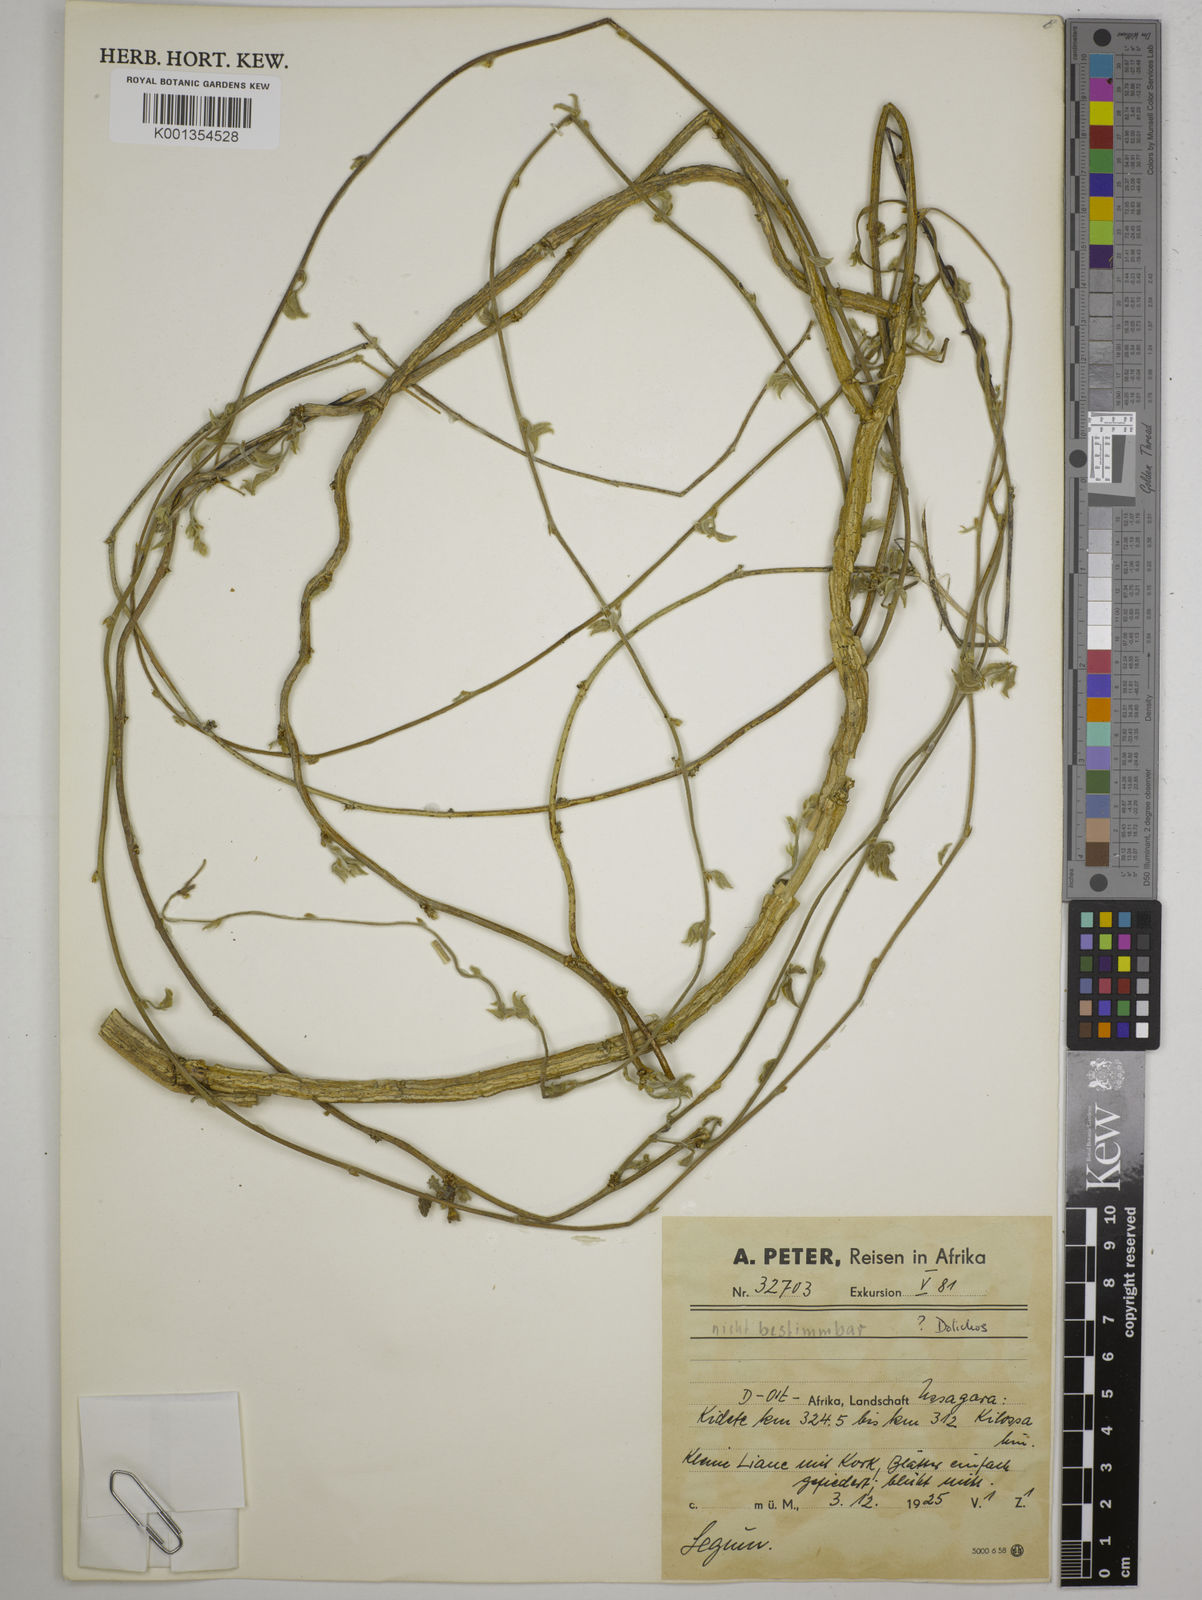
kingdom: Plantae
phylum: Tracheophyta
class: Magnoliopsida
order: Fabales
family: Fabaceae
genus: Dolichos
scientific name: Dolichos
